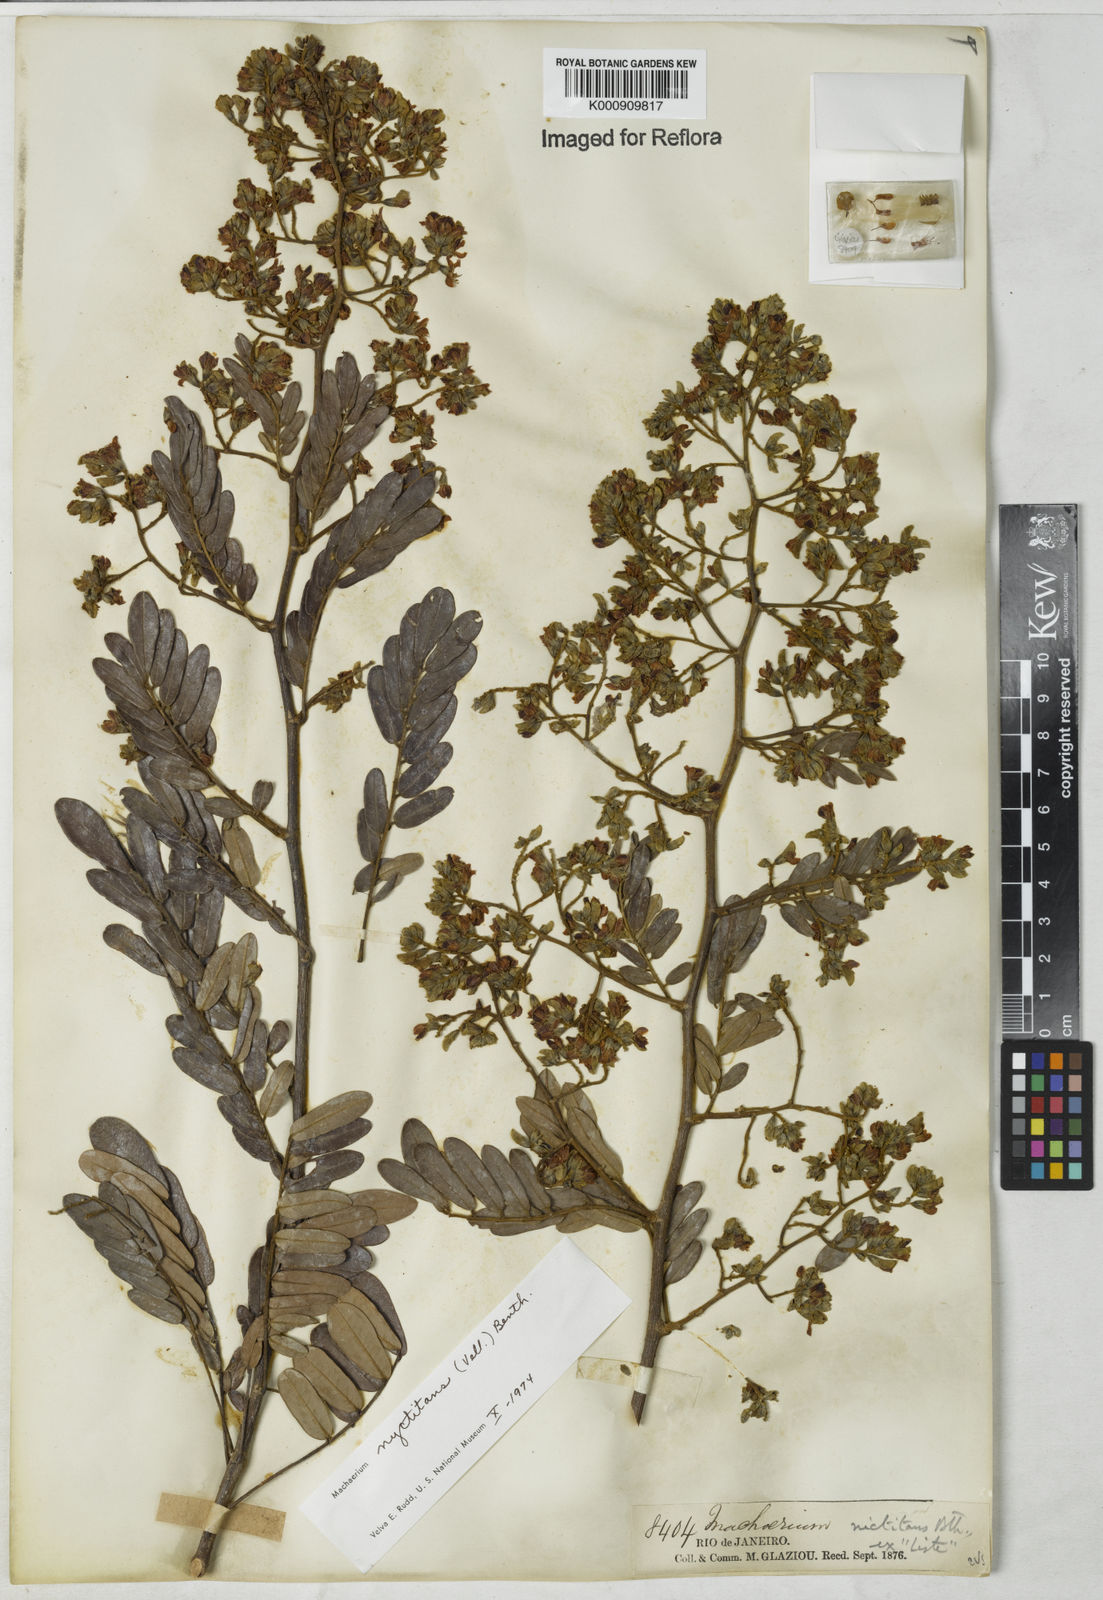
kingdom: Plantae
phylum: Tracheophyta
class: Magnoliopsida
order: Fabales
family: Fabaceae
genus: Machaerium
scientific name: Machaerium nyctitans
